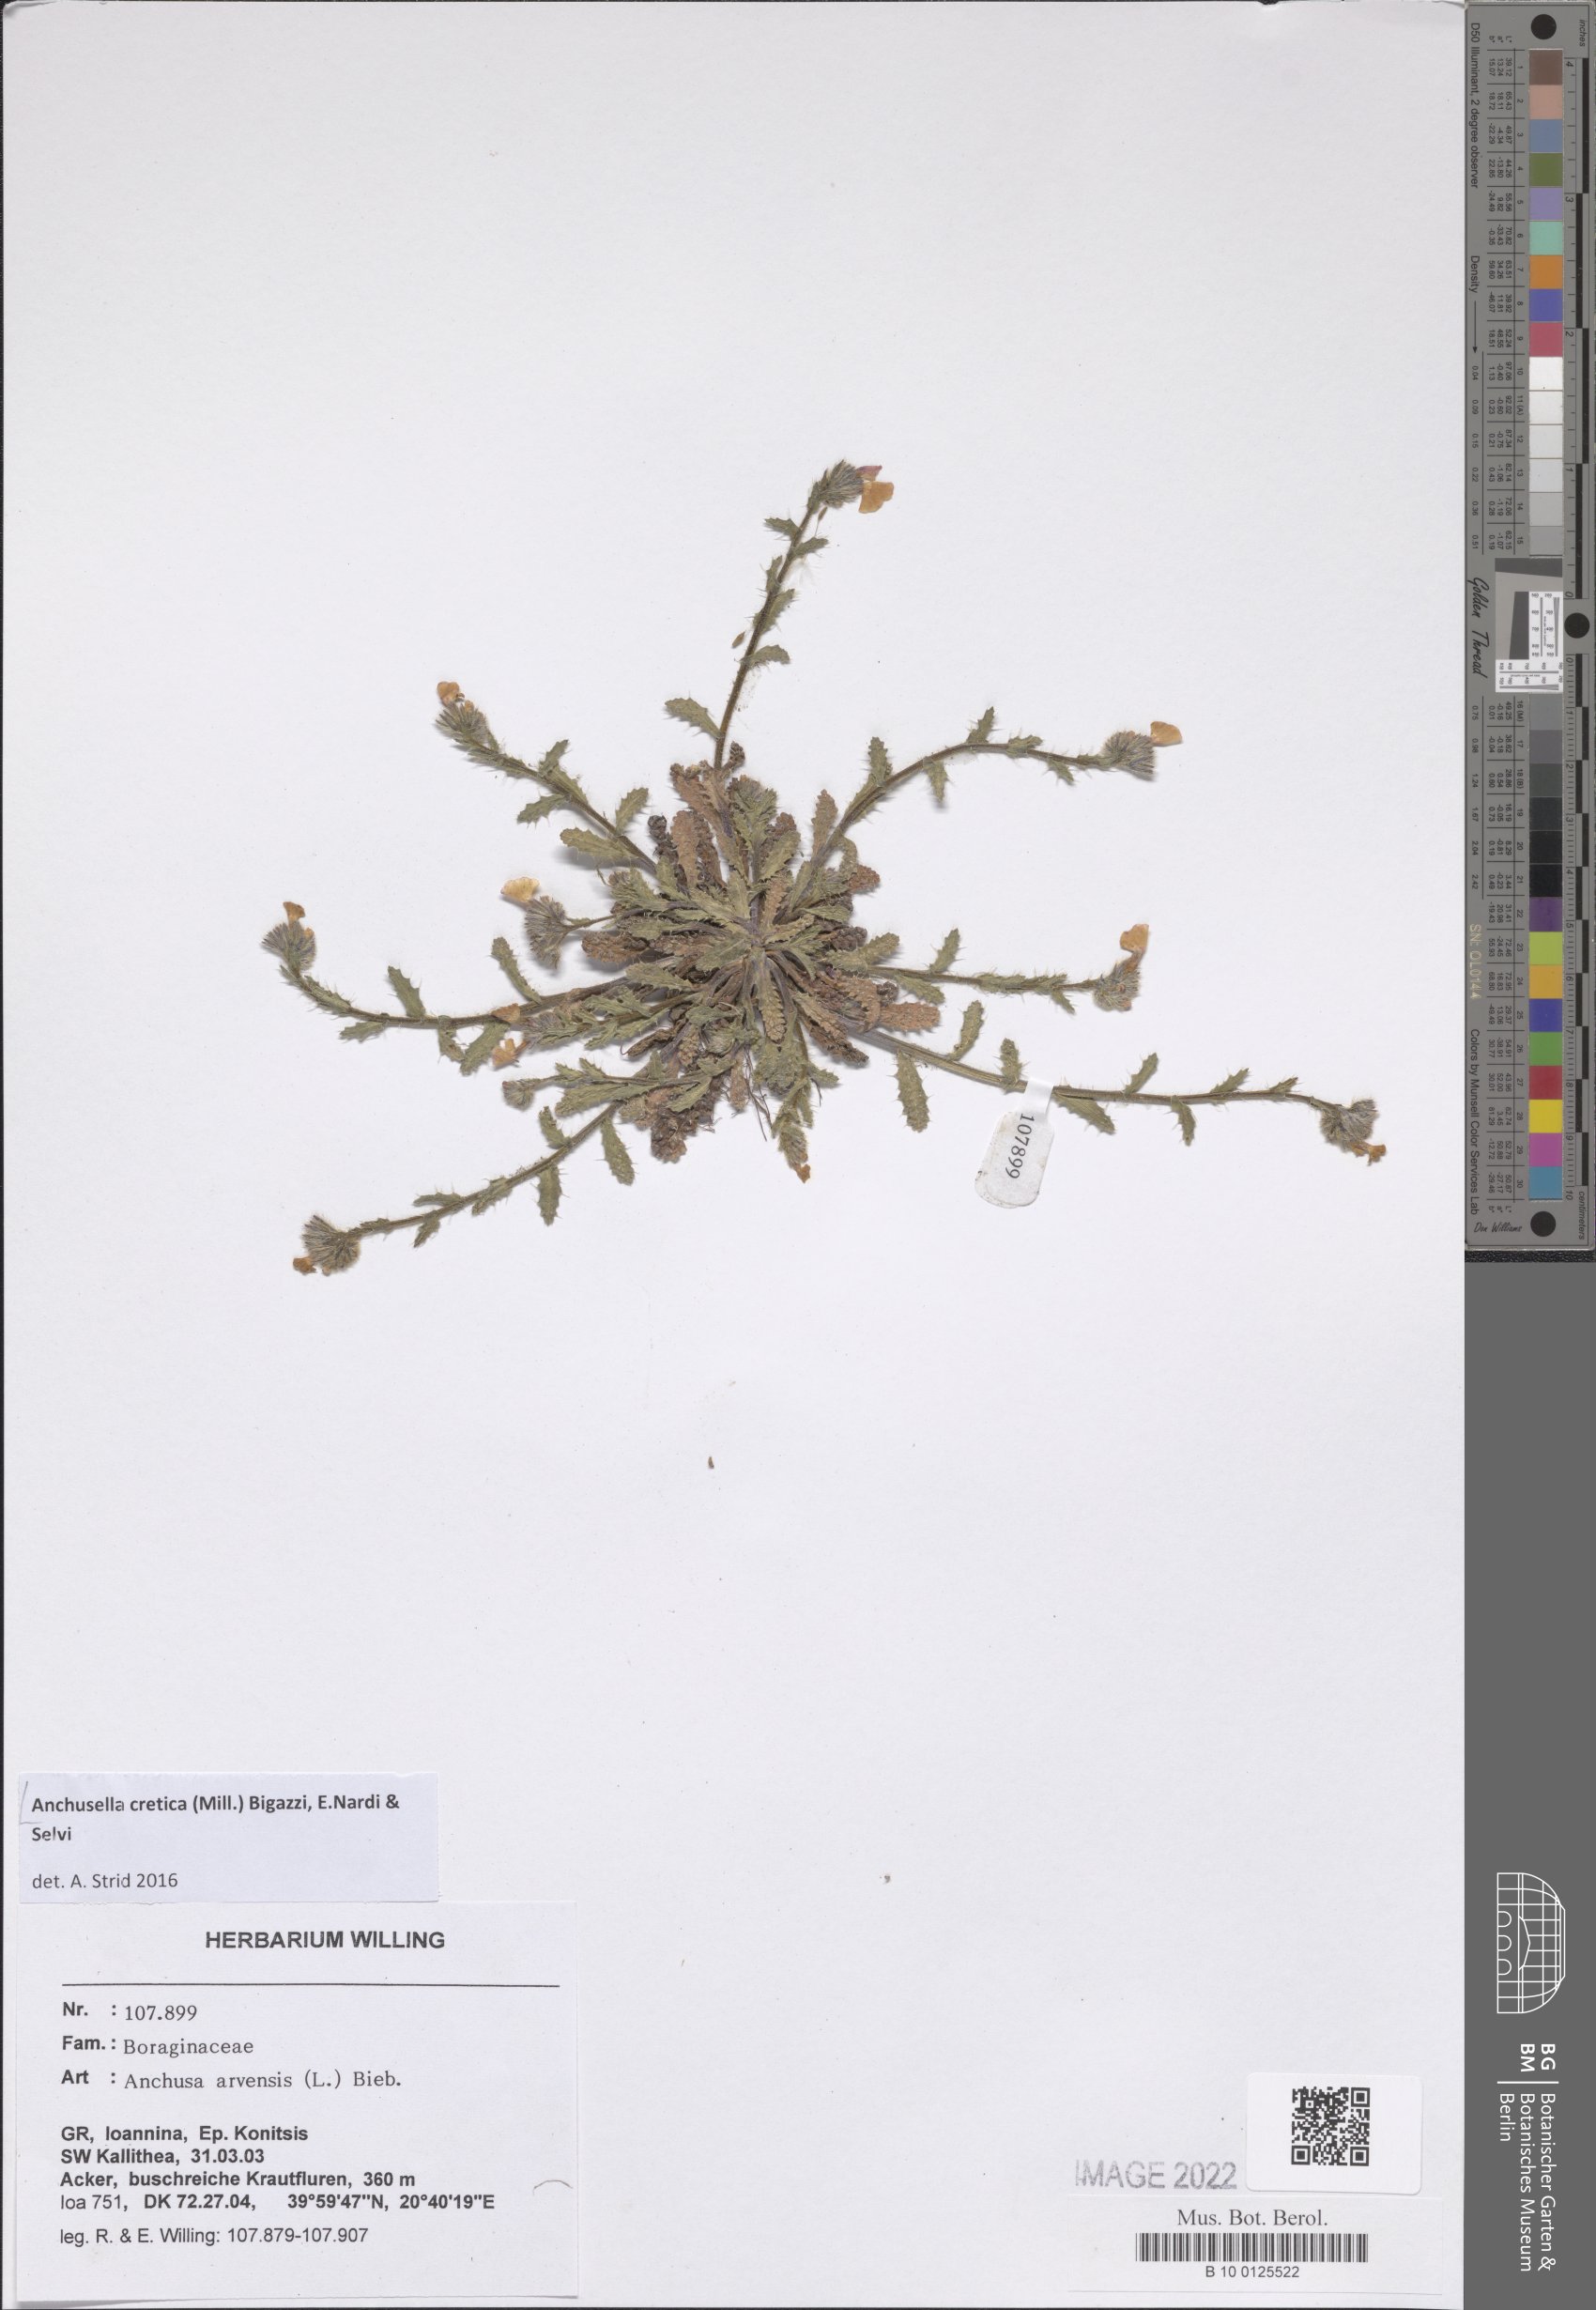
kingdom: Plantae
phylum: Tracheophyta
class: Magnoliopsida
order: Boraginales
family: Boraginaceae
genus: Anchusella
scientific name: Anchusella cretica
